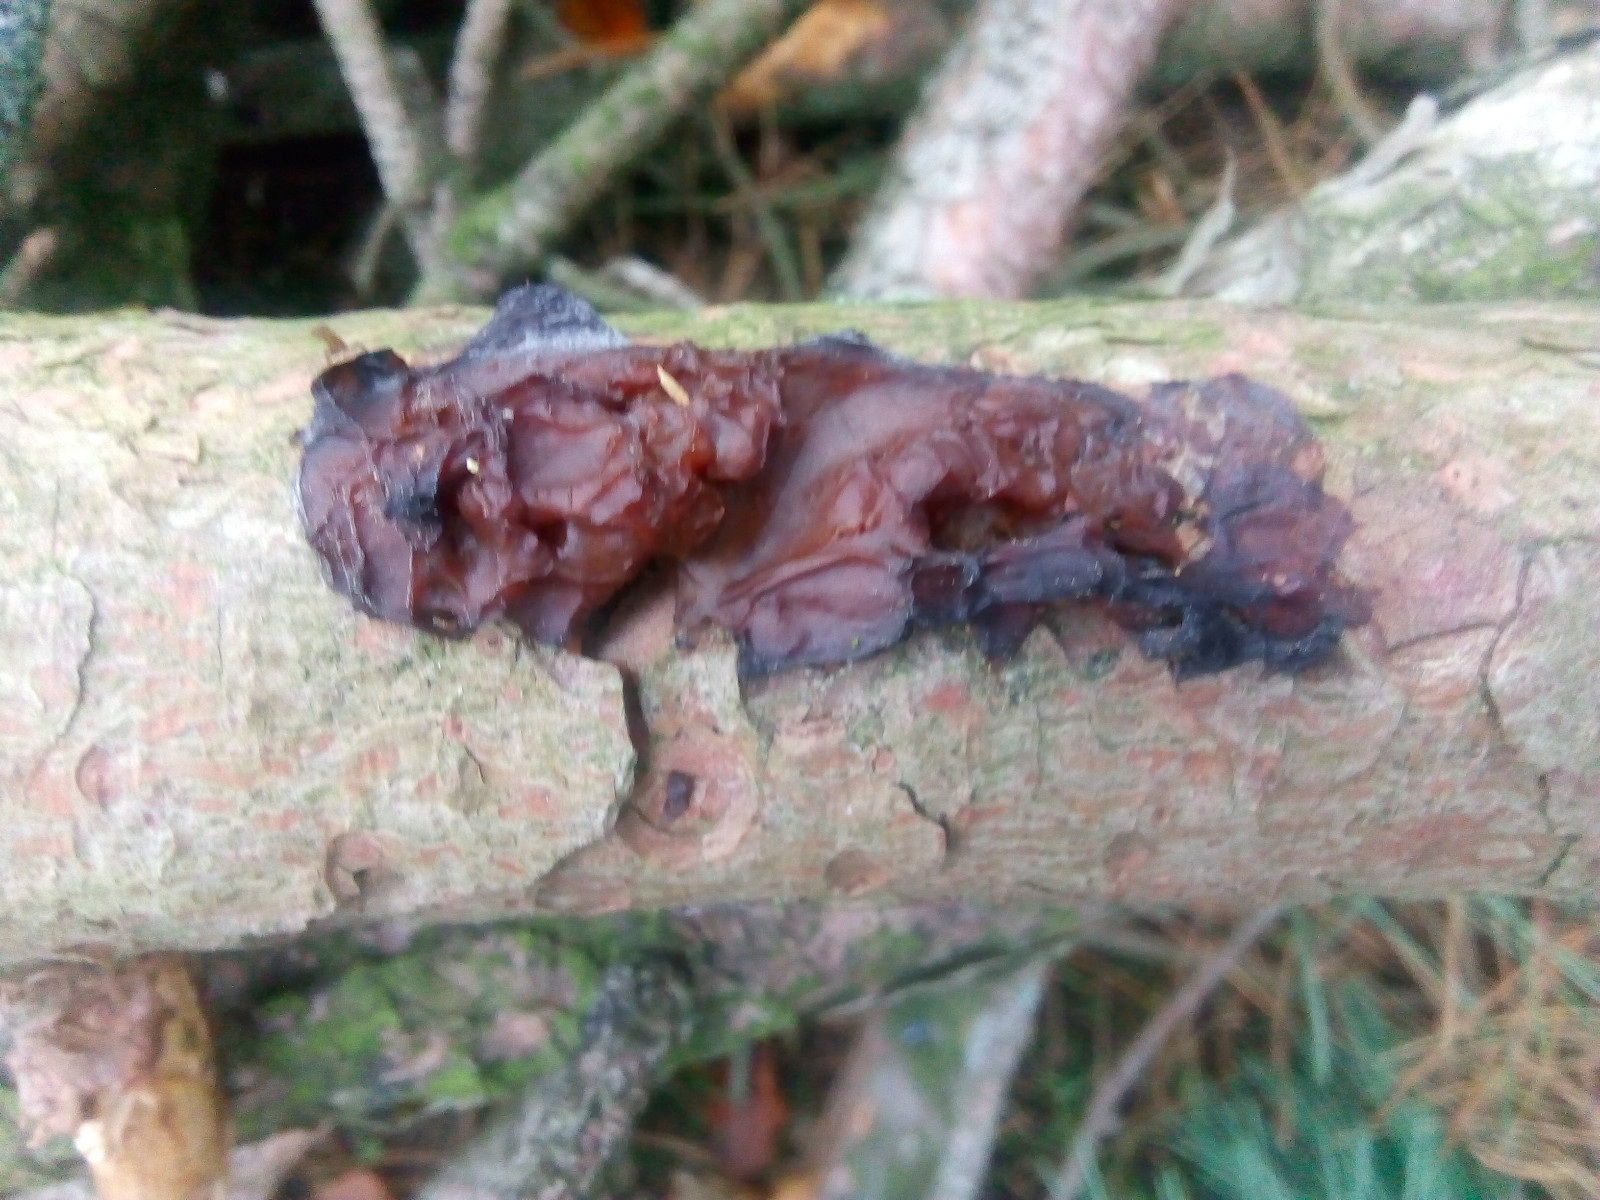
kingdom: Fungi
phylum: Basidiomycota
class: Agaricomycetes
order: Auriculariales
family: Auriculariaceae
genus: Exidia
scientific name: Exidia saccharina
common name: kandis-bævretop
